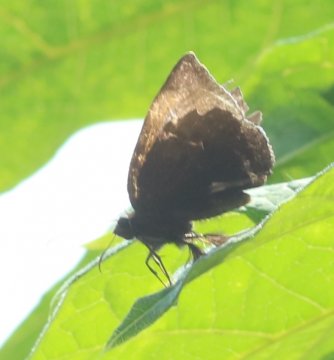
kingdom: Animalia
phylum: Arthropoda
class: Insecta
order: Lepidoptera
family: Riodinidae
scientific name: Riodinidae
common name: Metalmarks
